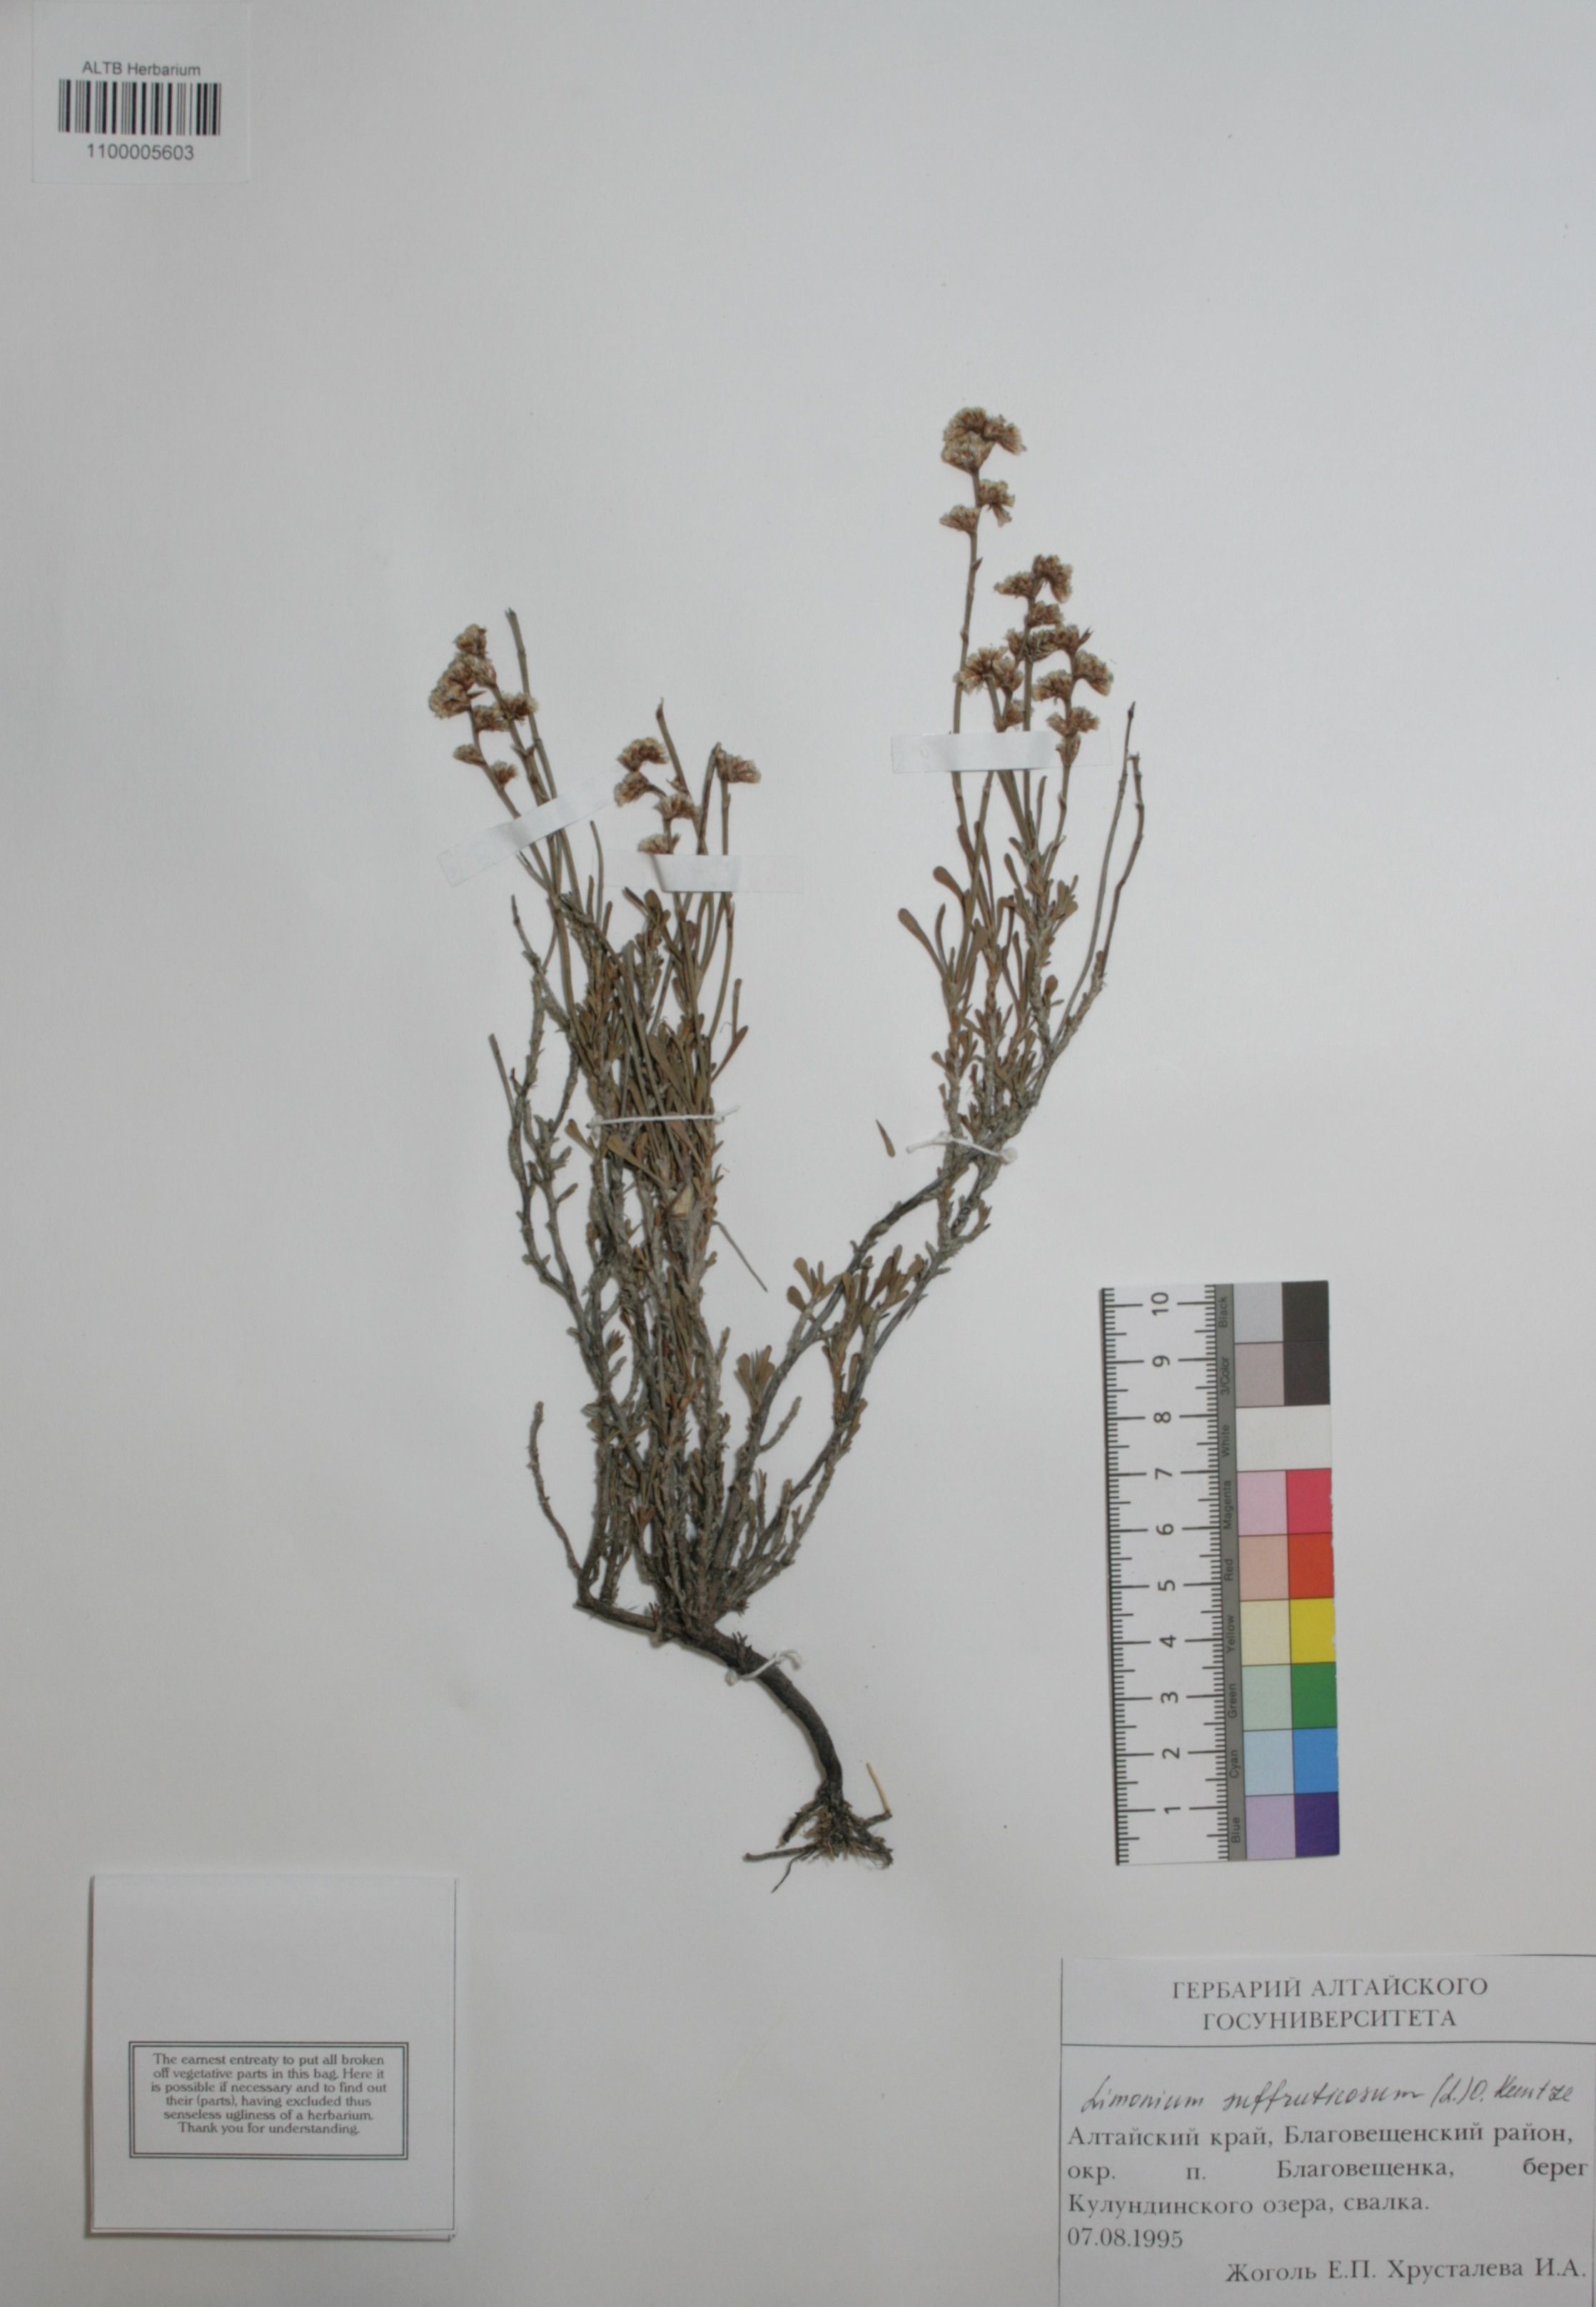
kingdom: Plantae
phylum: Tracheophyta
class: Magnoliopsida
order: Caryophyllales
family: Plumbaginaceae
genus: Limonium
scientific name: Limonium suffruticosum
